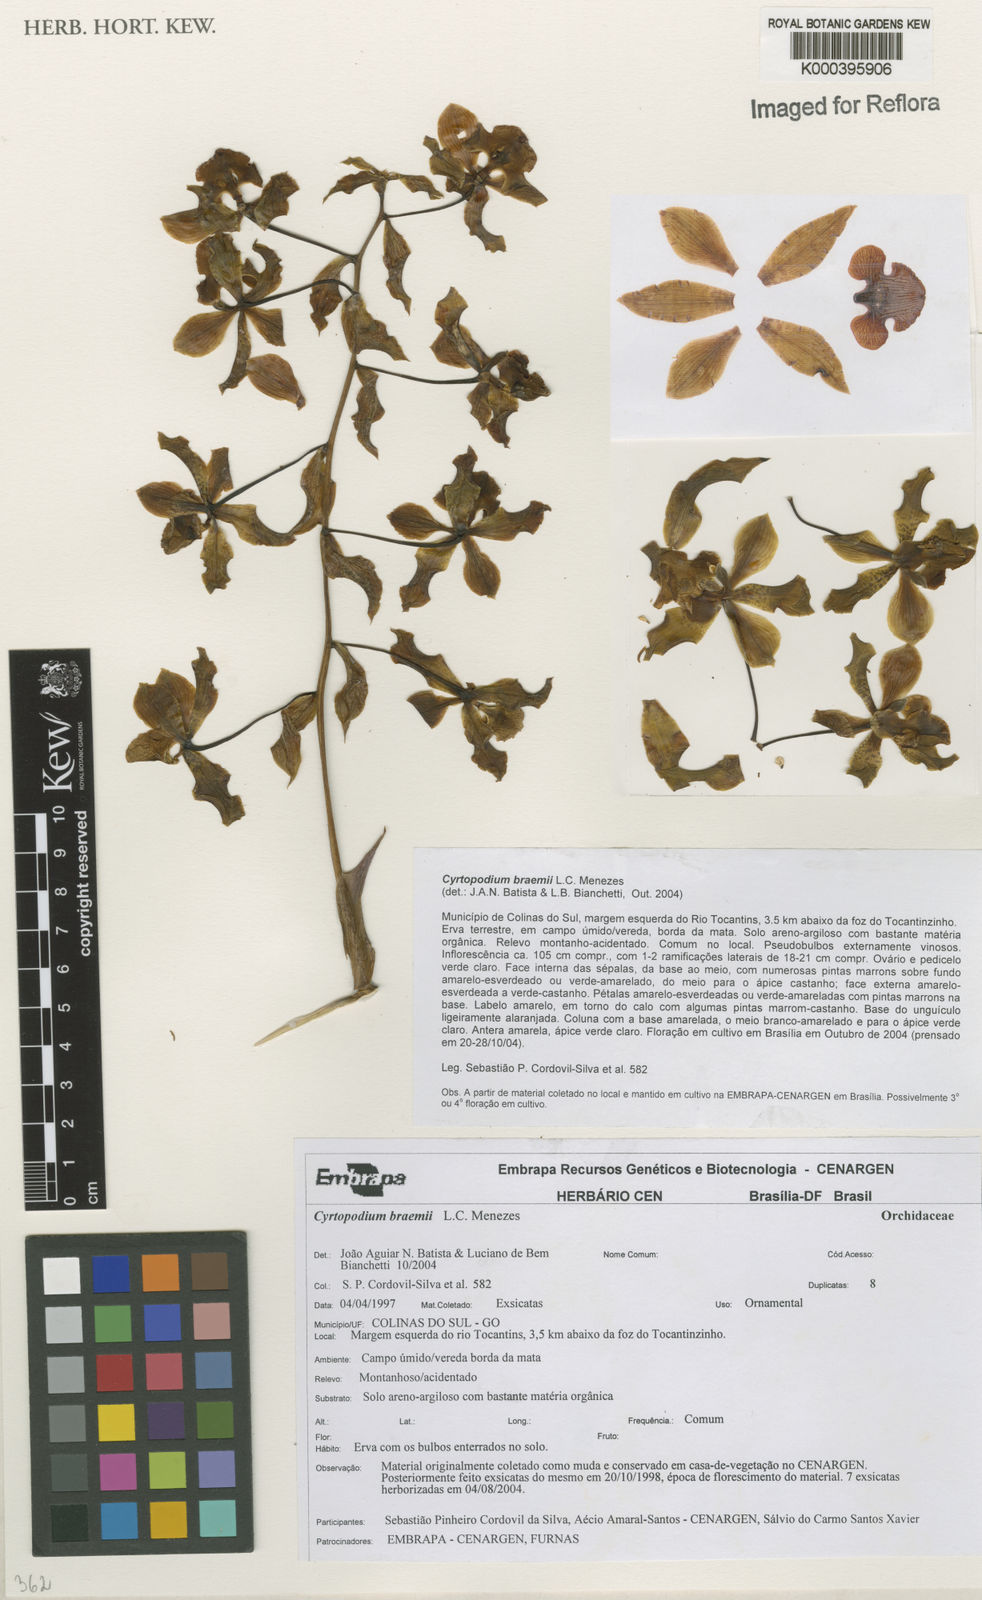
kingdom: Plantae
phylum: Tracheophyta
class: Liliopsida
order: Asparagales
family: Orchidaceae
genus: Cyrtopodium
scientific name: Cyrtopodium braemii
